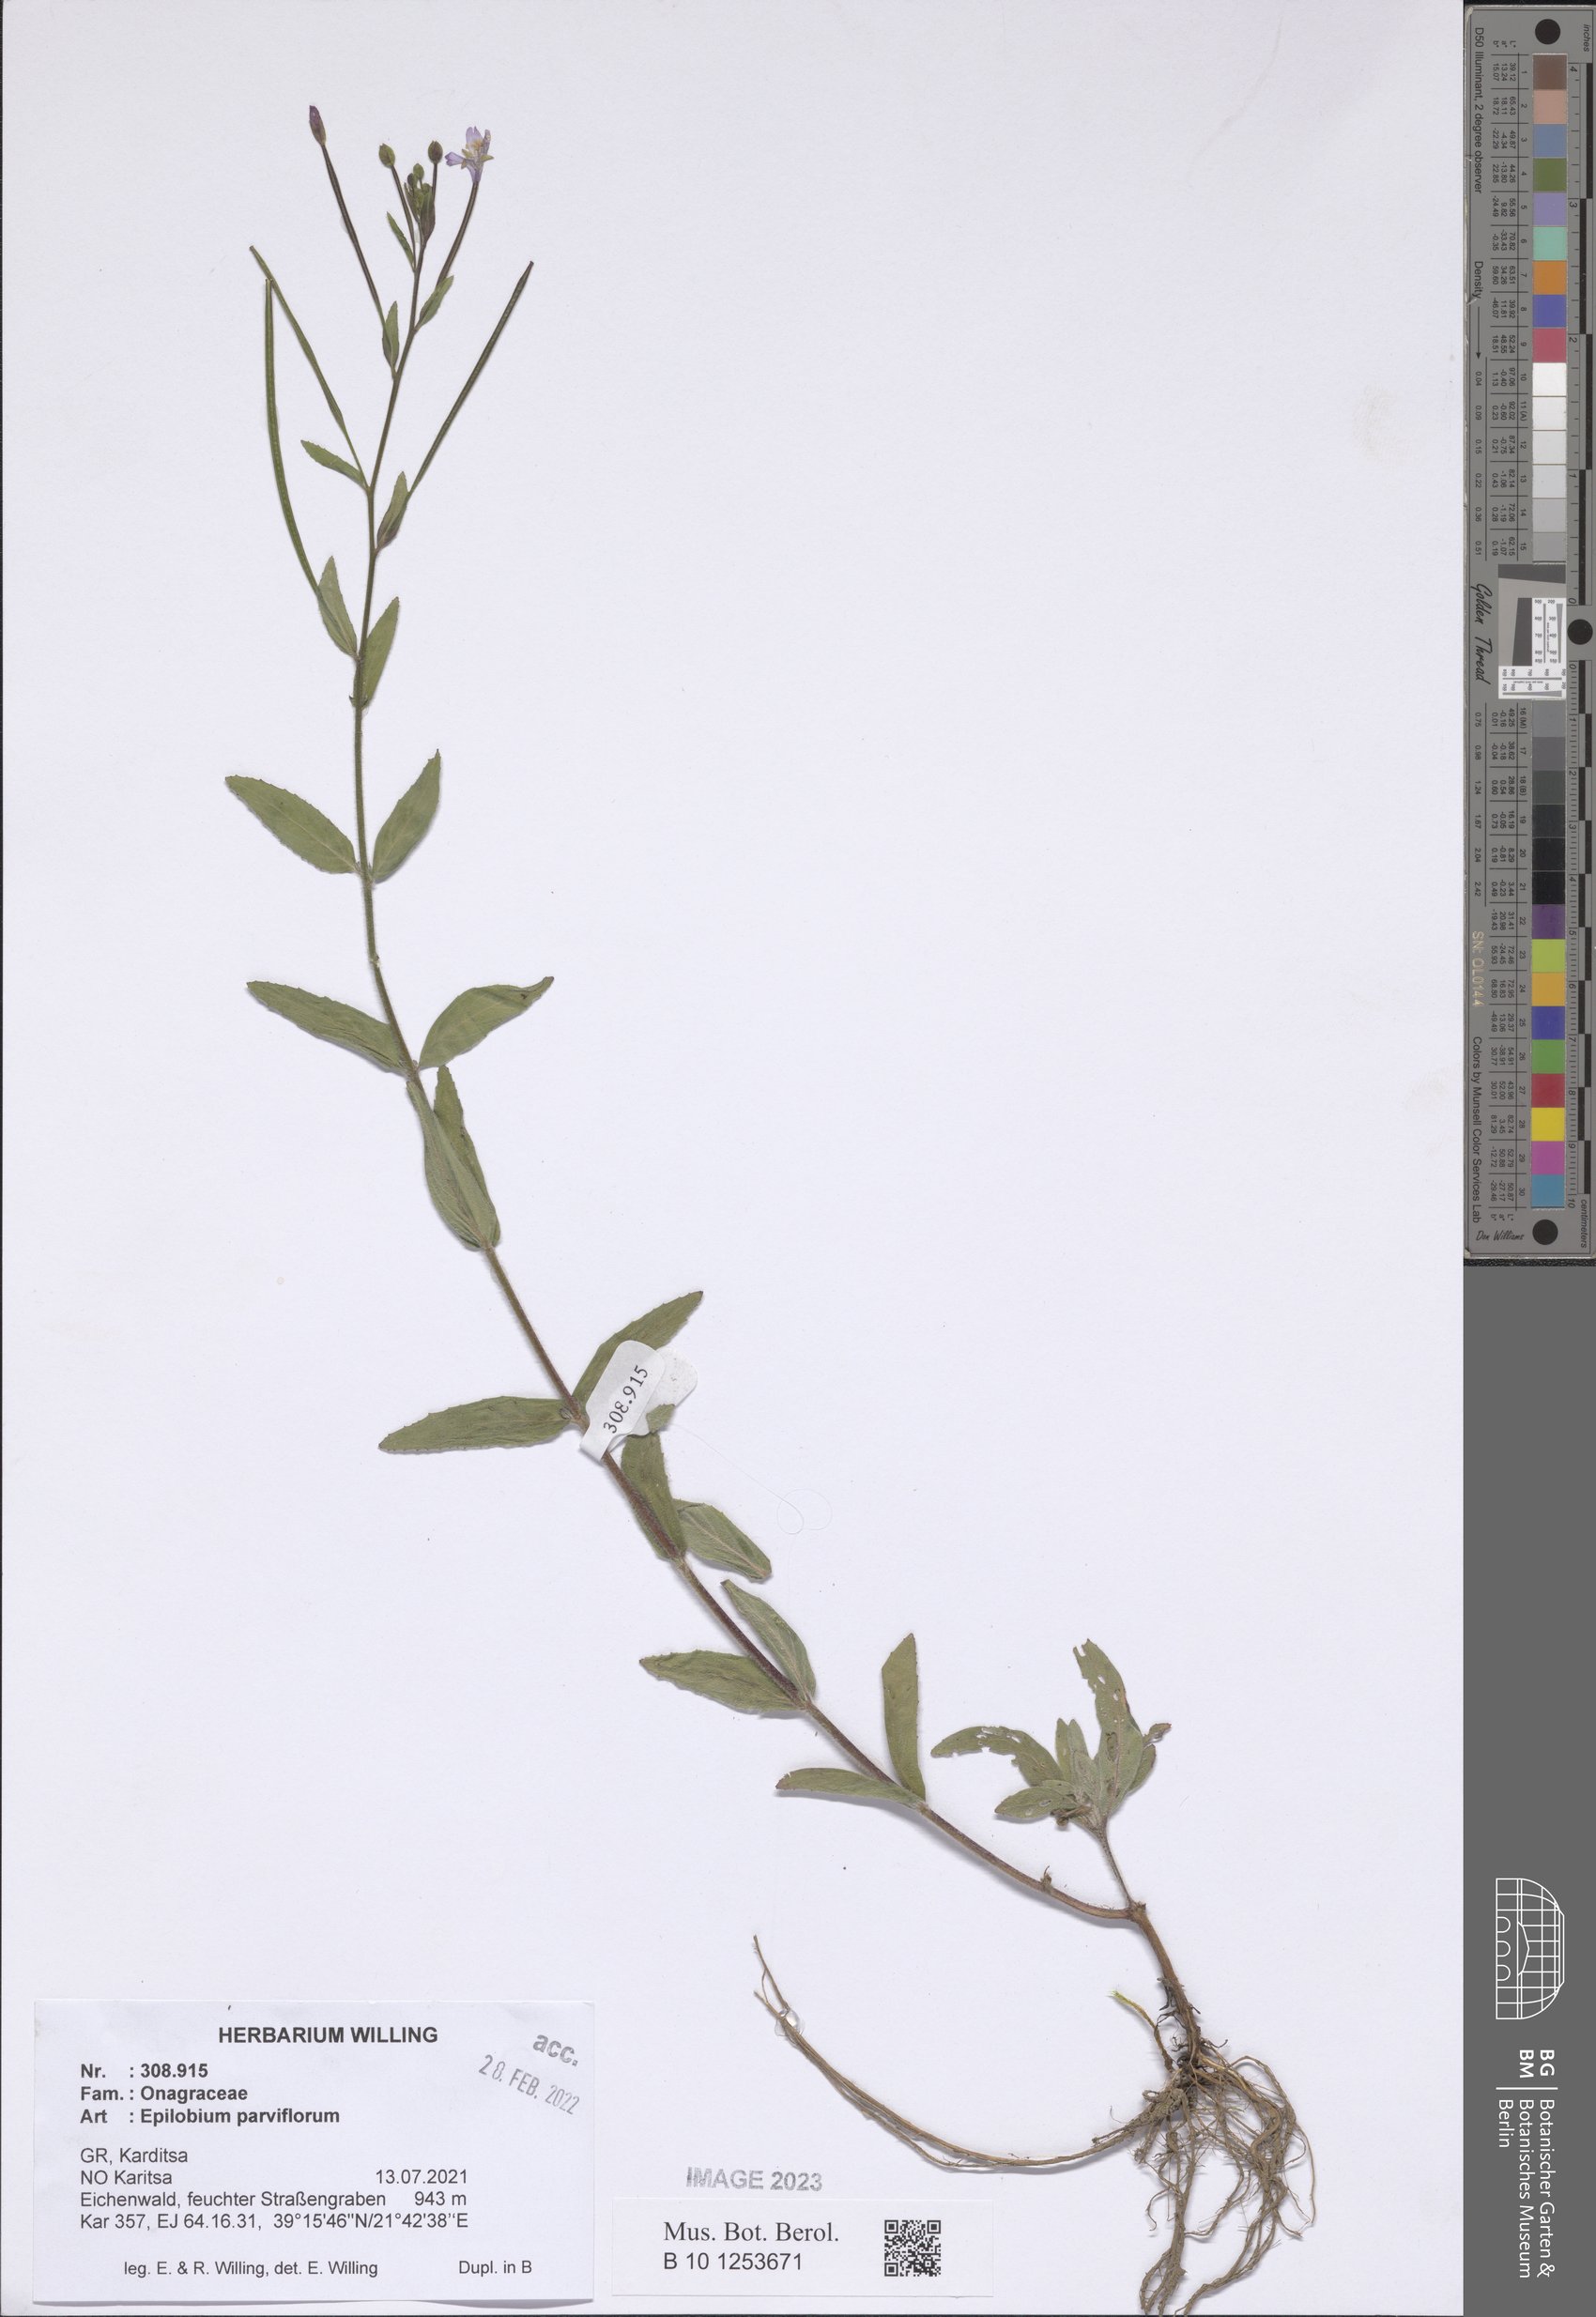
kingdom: Plantae
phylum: Tracheophyta
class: Magnoliopsida
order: Myrtales
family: Onagraceae
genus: Epilobium
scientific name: Epilobium parviflorum
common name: Hoary willowherb
